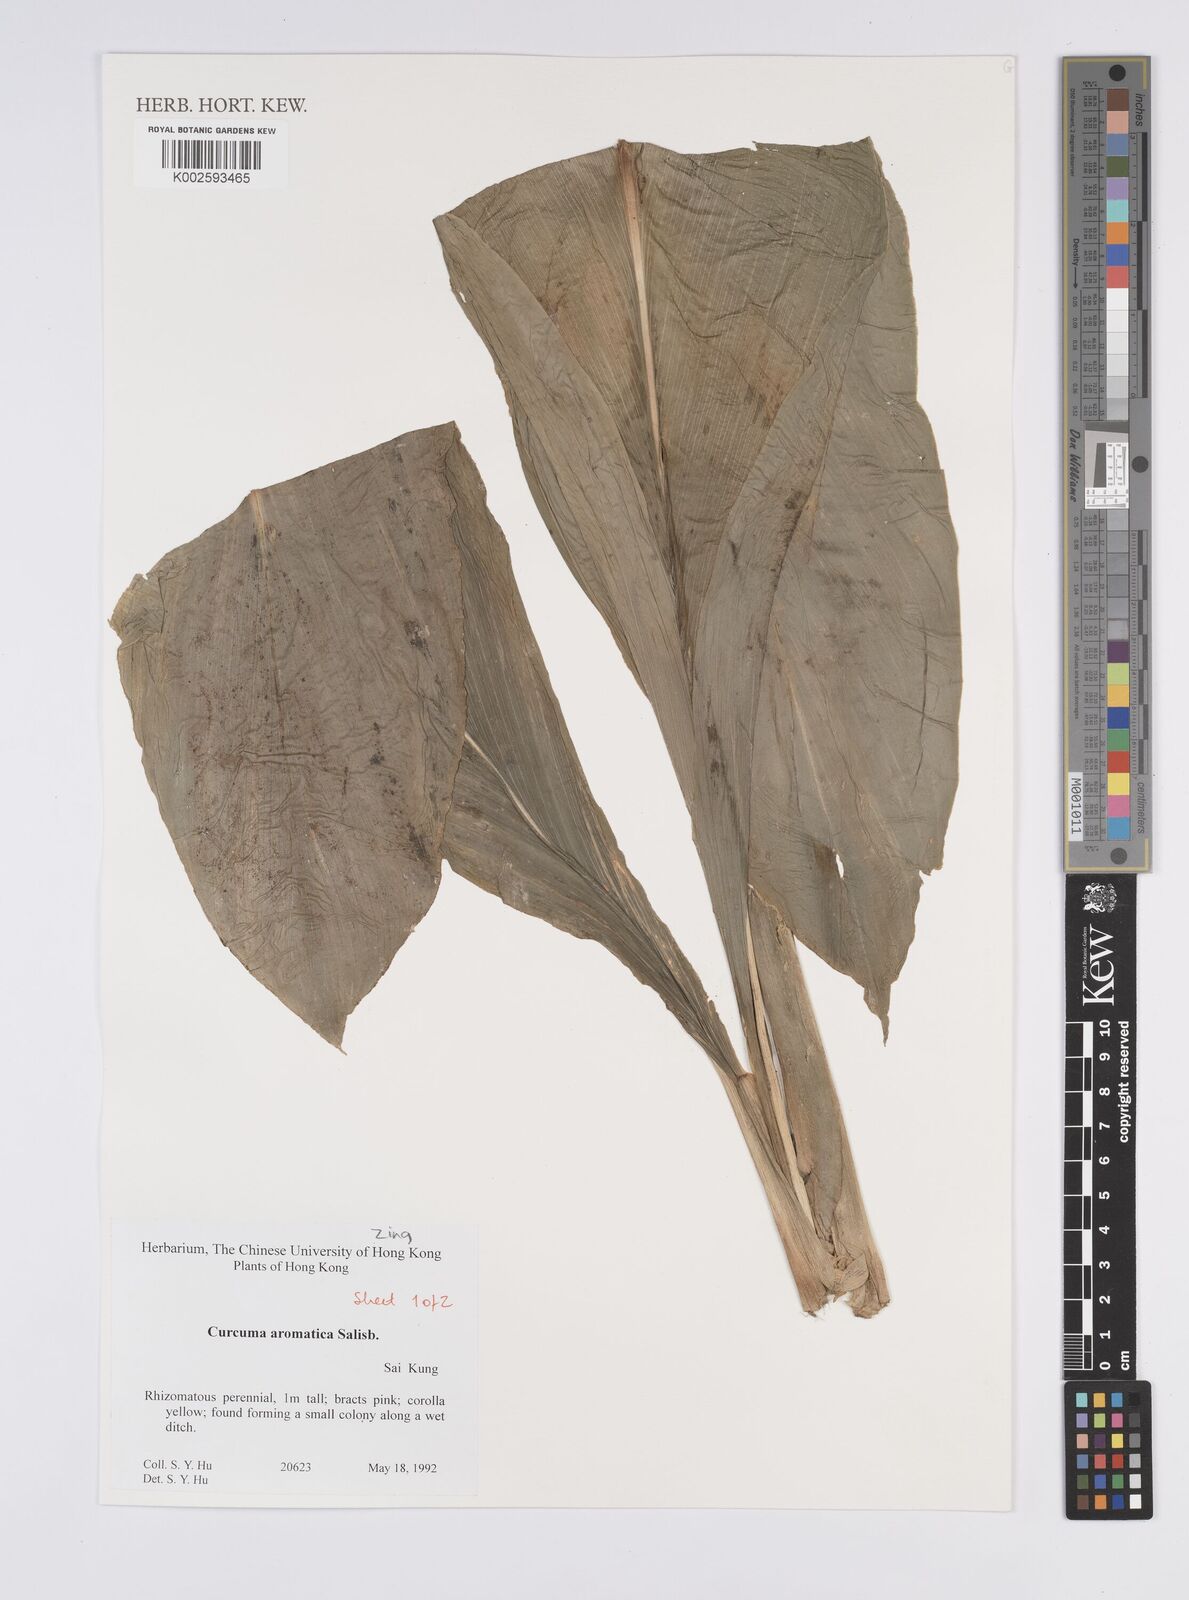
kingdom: Plantae
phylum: Tracheophyta
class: Liliopsida
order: Zingiberales
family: Zingiberaceae
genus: Curcuma
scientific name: Curcuma aromatica
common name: Wild turmeric
